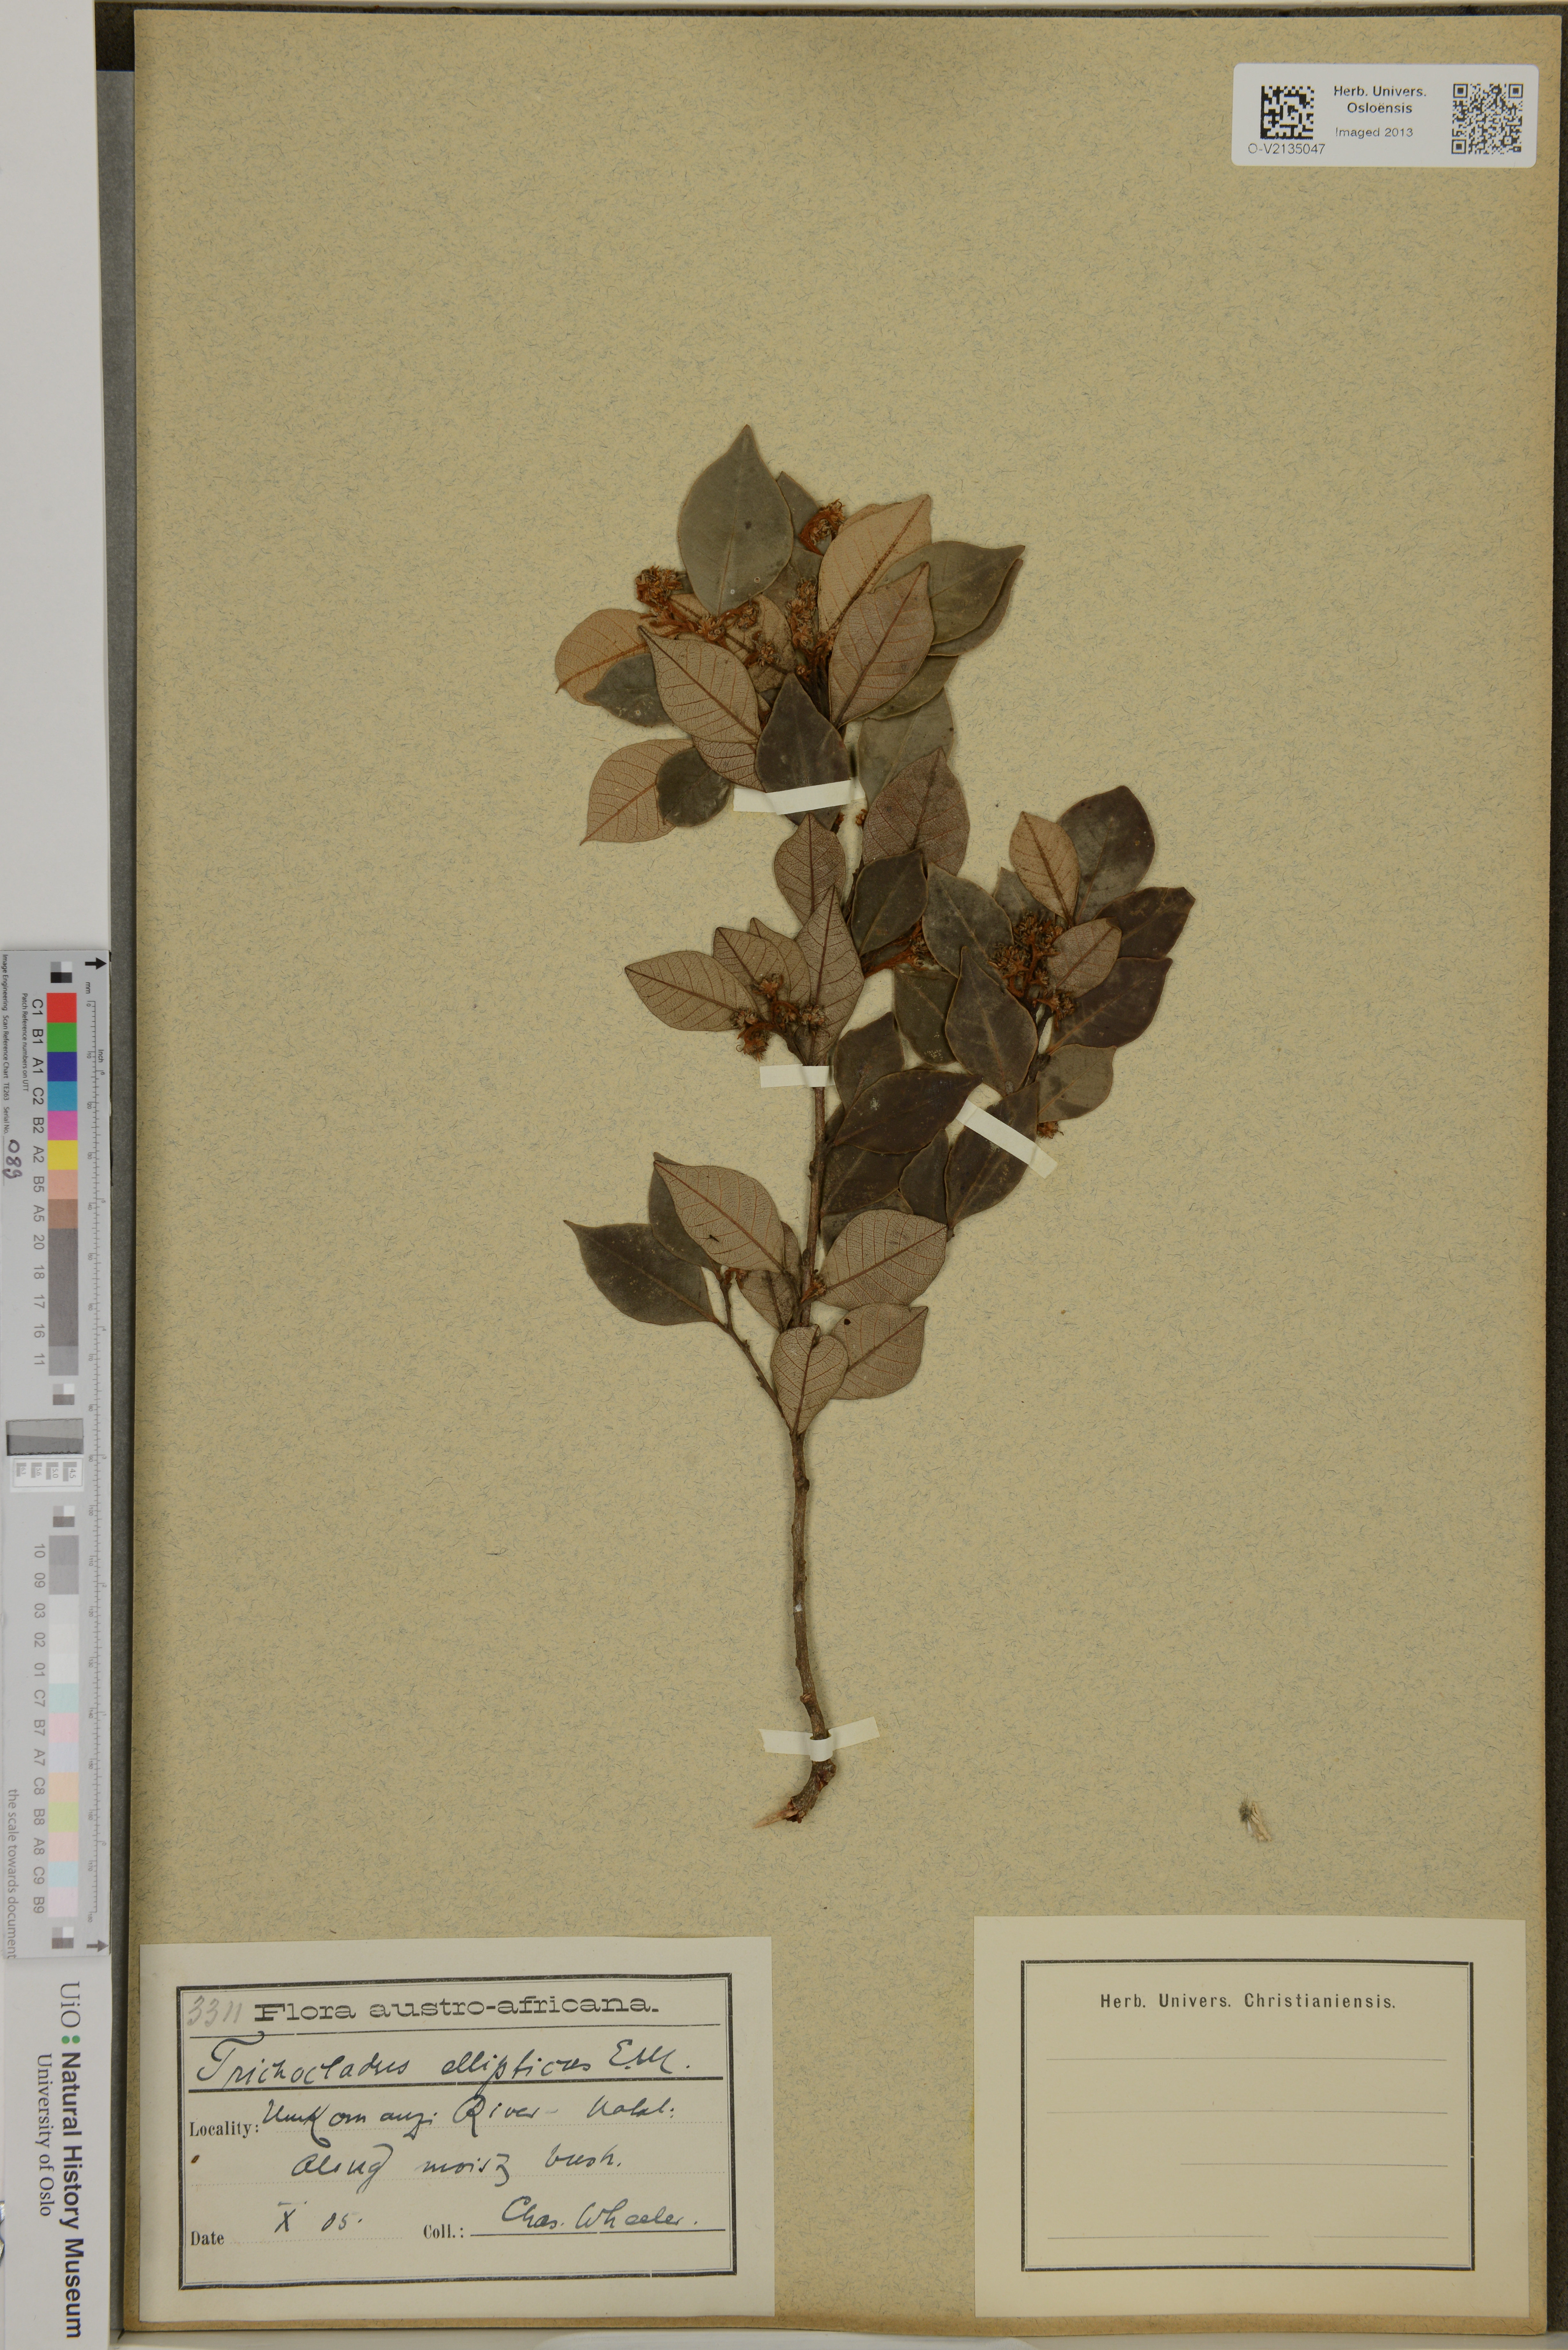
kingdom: Plantae
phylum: Tracheophyta
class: Magnoliopsida
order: Saxifragales
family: Hamamelidaceae
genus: Trichocladus
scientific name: Trichocladus ellipticus
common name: White witch-hazel
